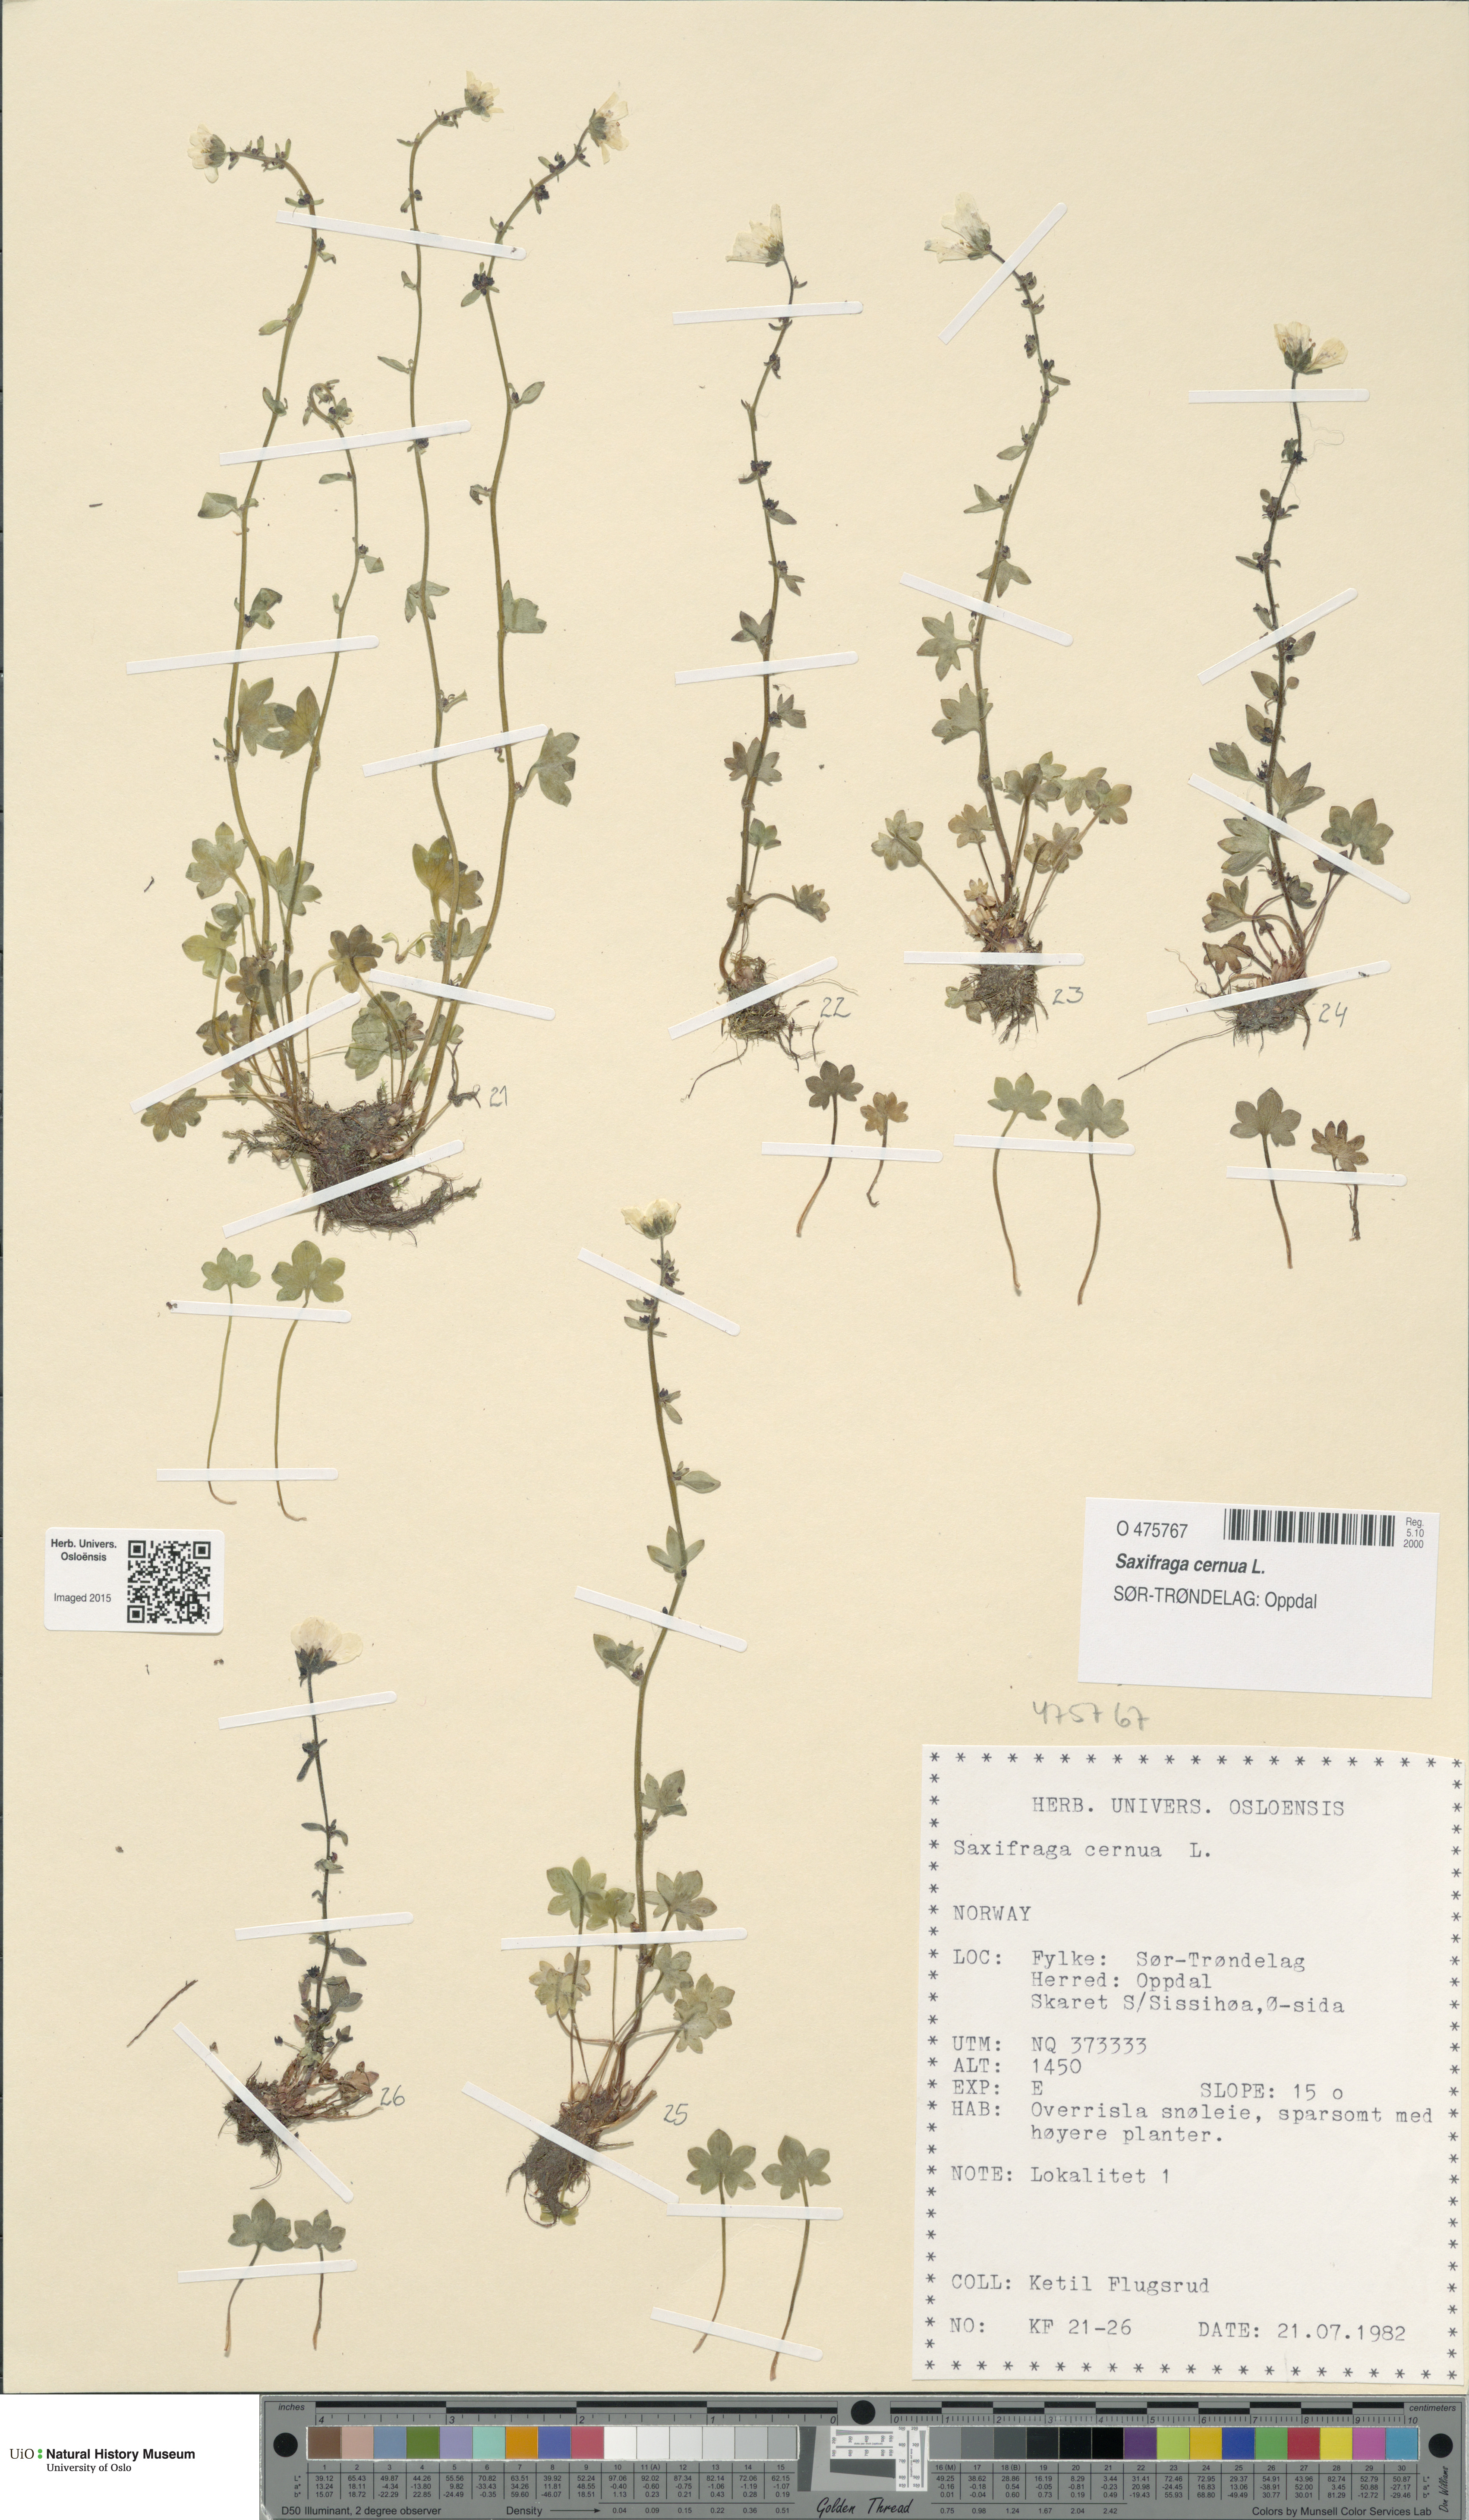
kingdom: Plantae
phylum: Tracheophyta
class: Magnoliopsida
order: Saxifragales
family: Saxifragaceae
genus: Saxifraga
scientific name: Saxifraga cernua
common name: Drooping saxifrage
